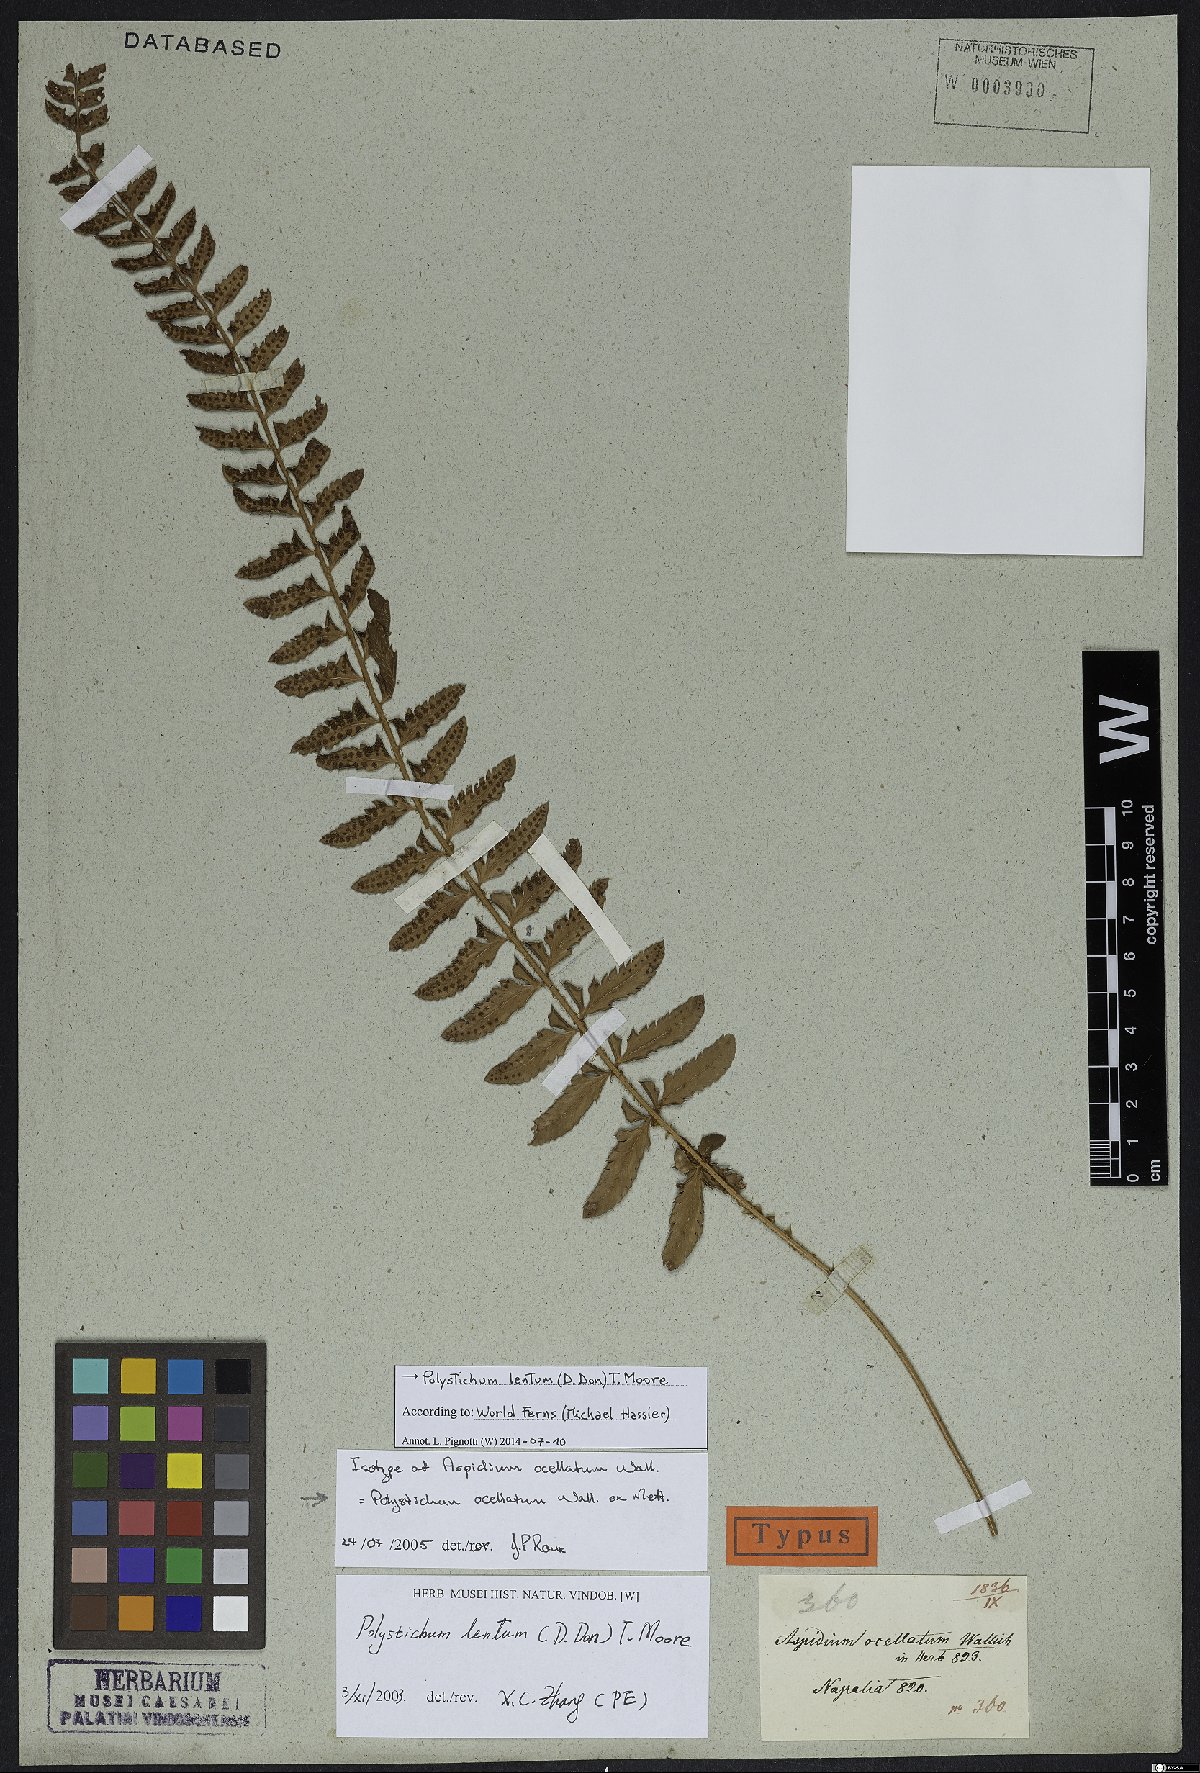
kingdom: Plantae
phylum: Tracheophyta
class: Polypodiopsida
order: Polypodiales
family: Dryopteridaceae
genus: Polystichum
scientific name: Polystichum lentum
